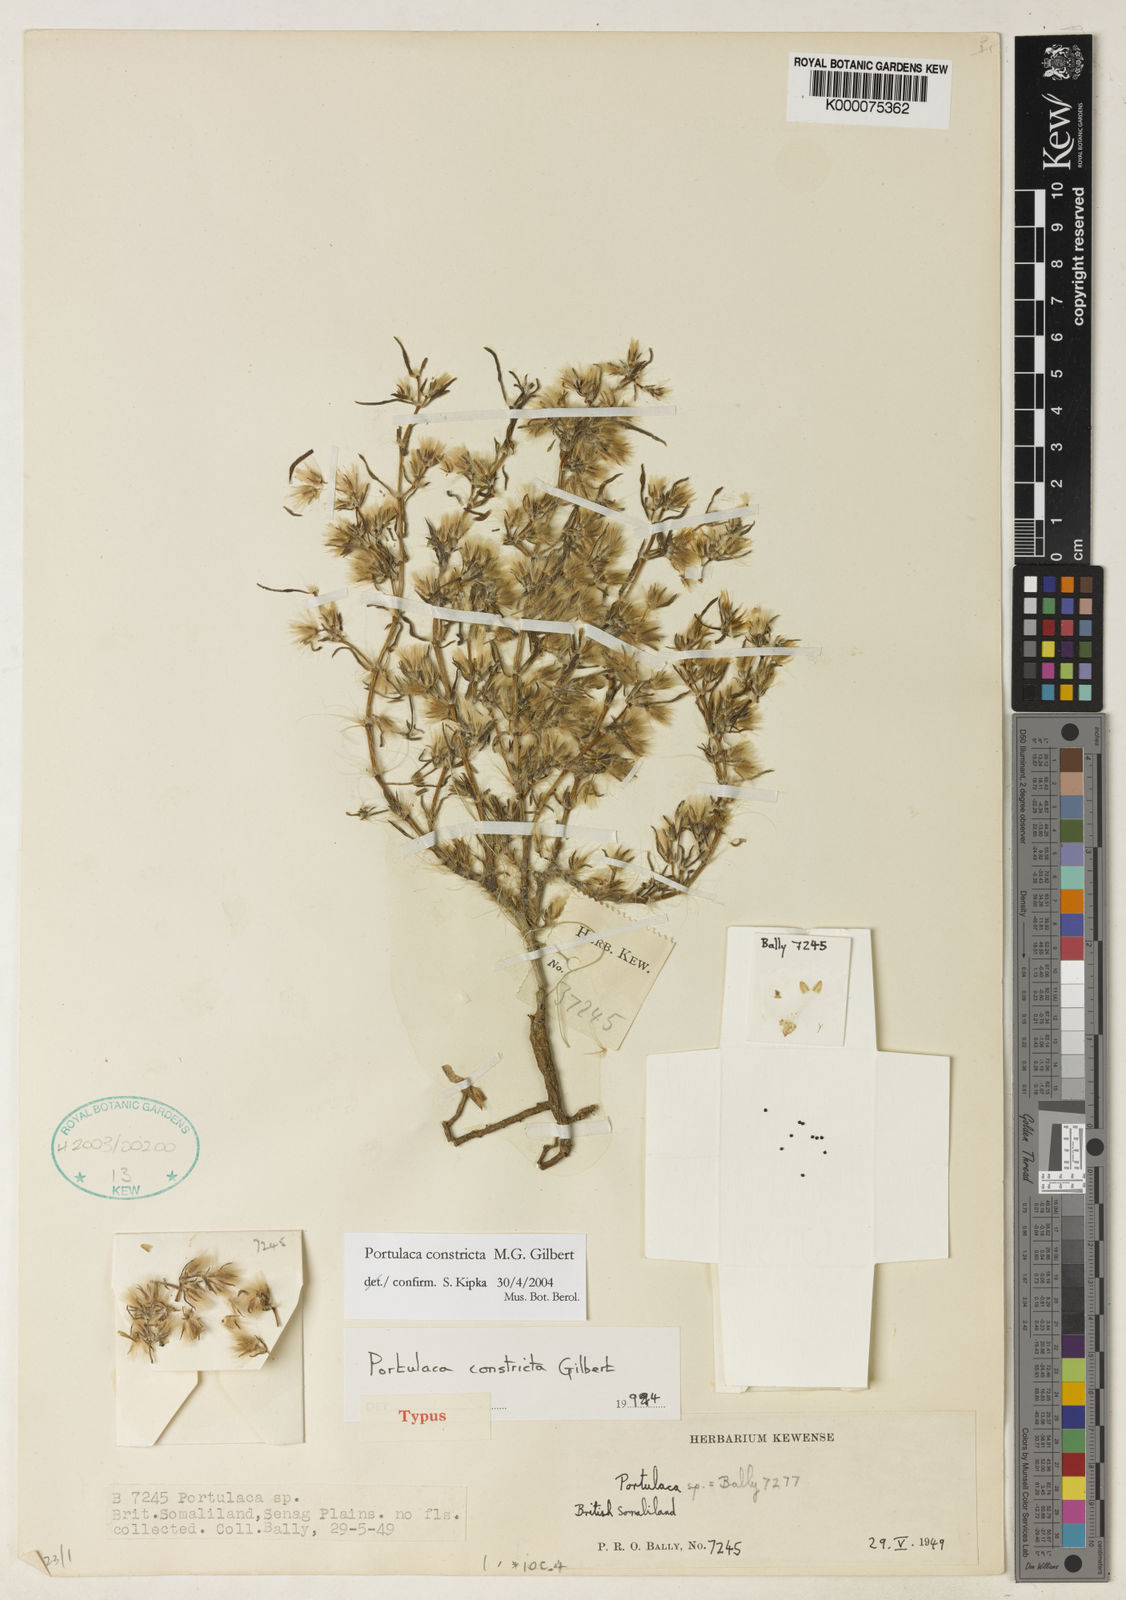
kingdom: Plantae
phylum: Tracheophyta
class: Magnoliopsida
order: Caryophyllales
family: Portulacaceae
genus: Portulaca
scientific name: Portulaca constricta
